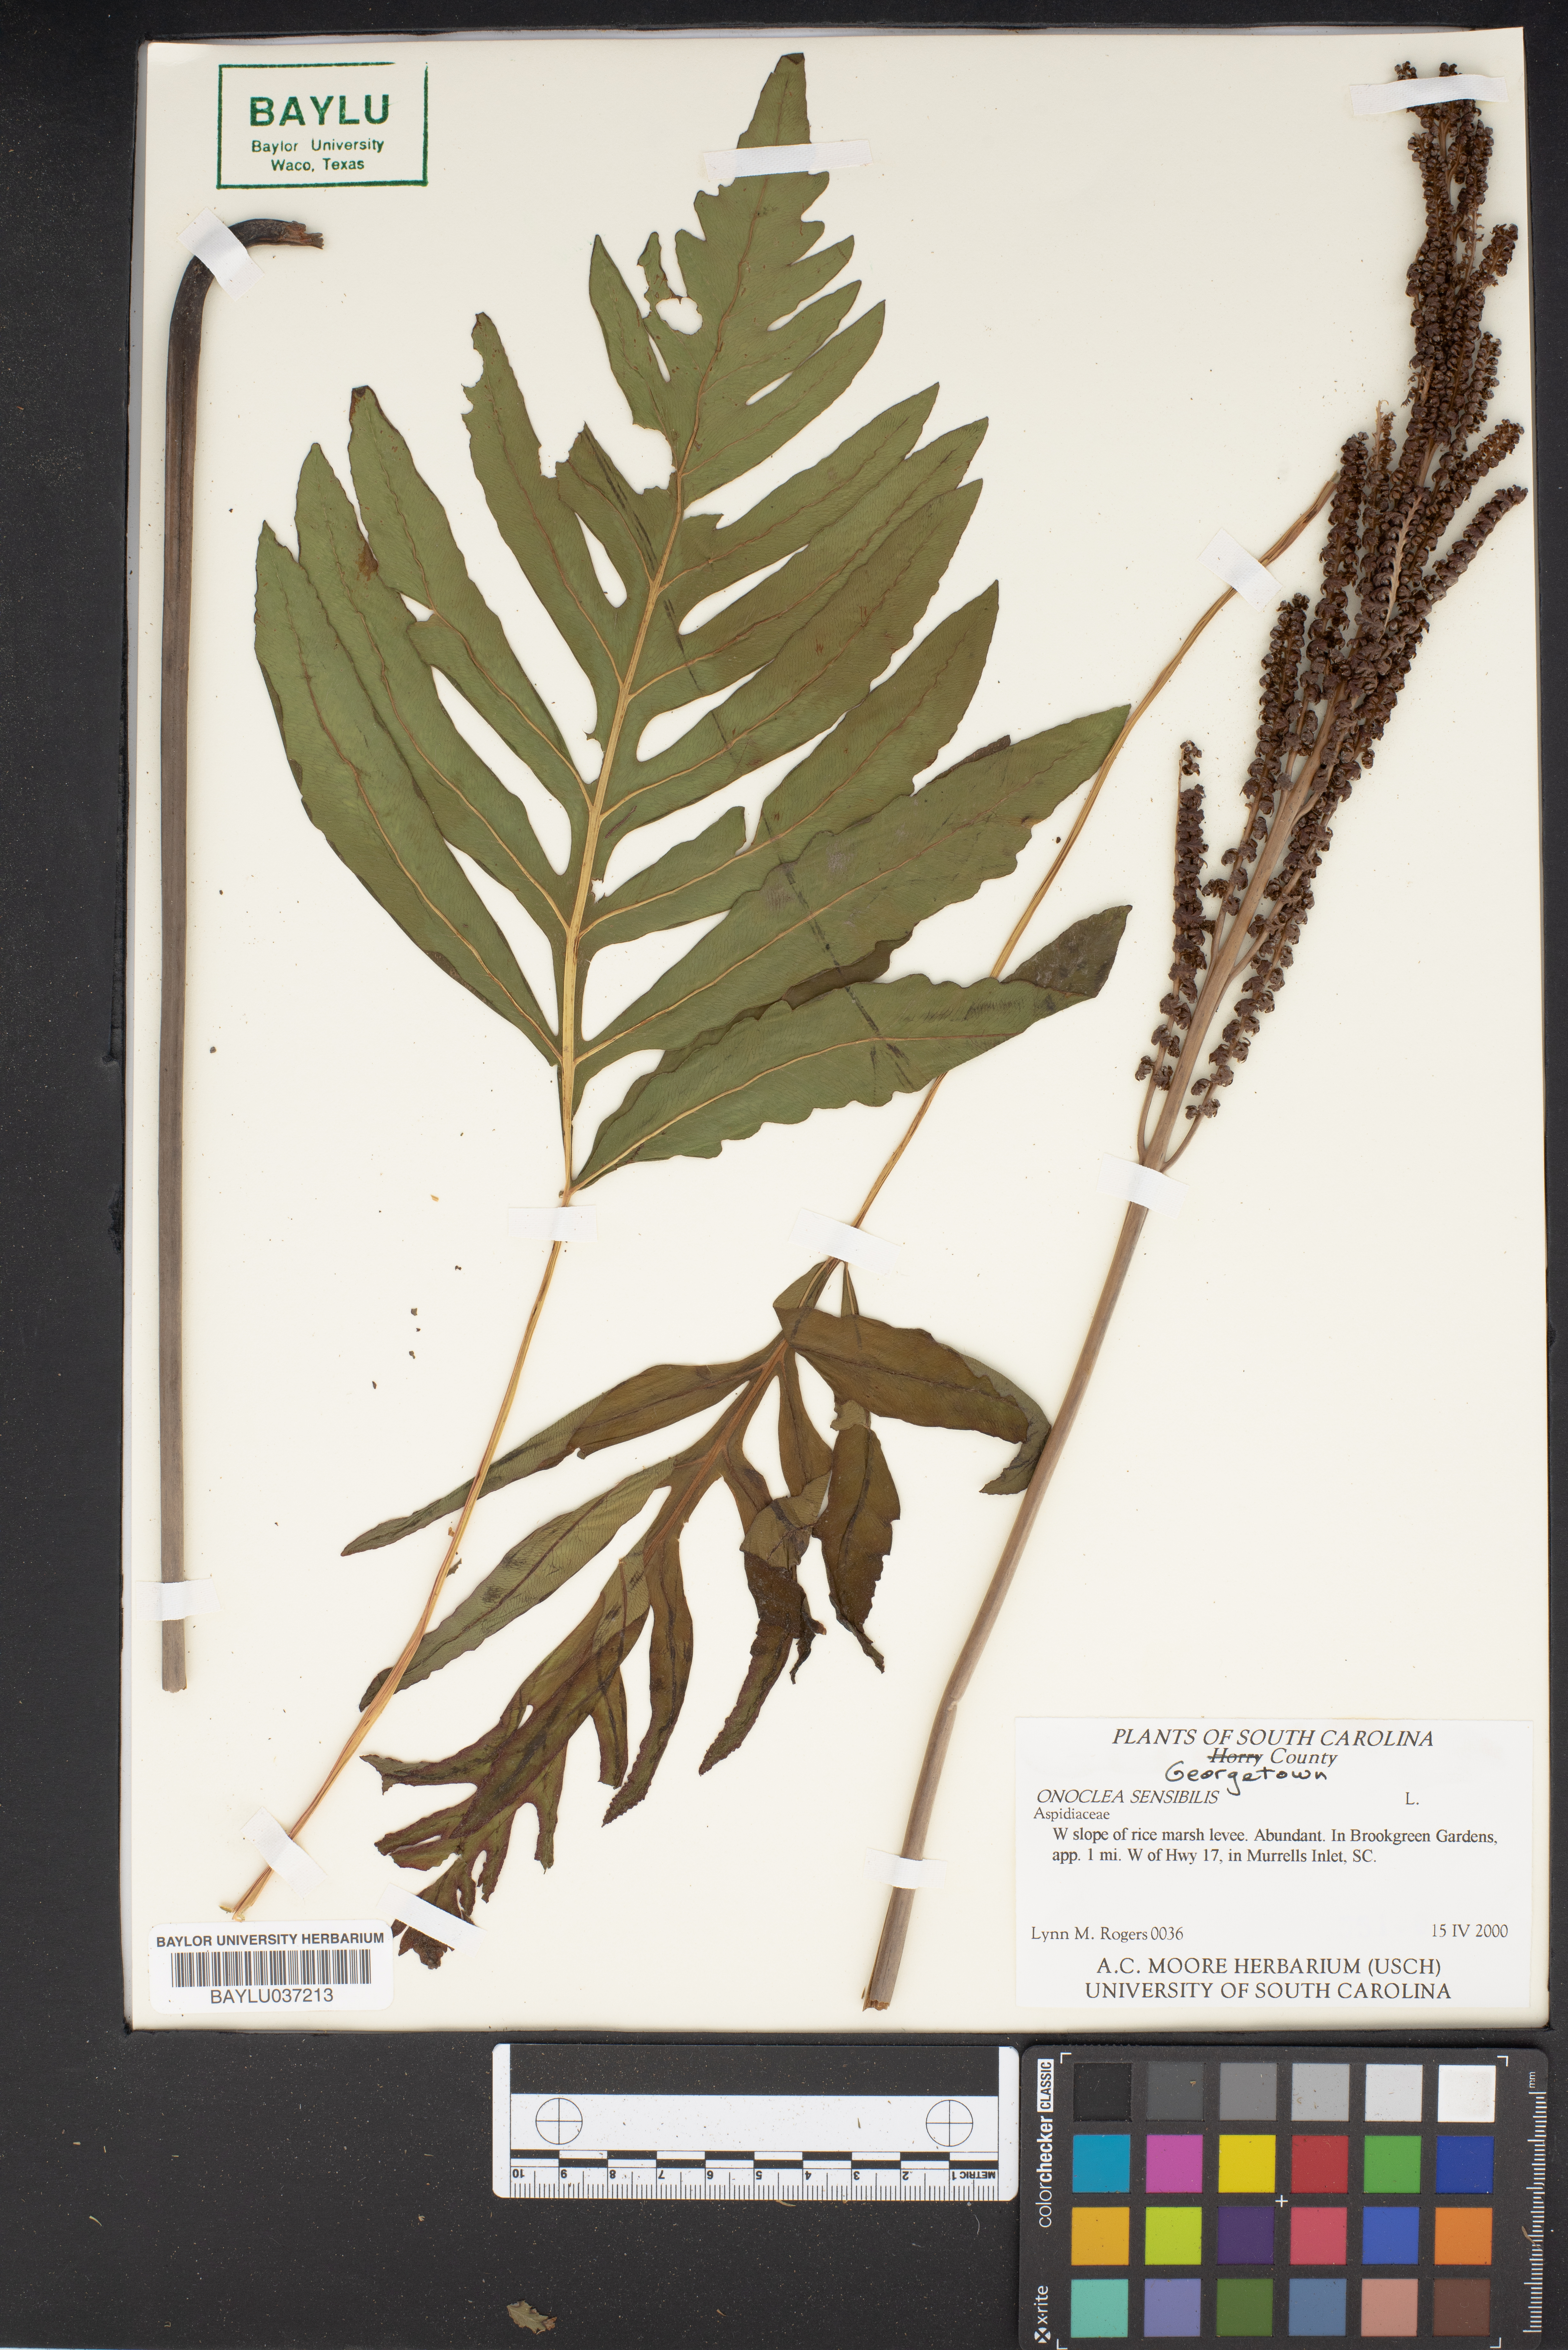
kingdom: Plantae
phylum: Tracheophyta
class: Polypodiopsida
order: Polypodiales
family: Onocleaceae
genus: Onoclea
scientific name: Onoclea sensibilis
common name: Sensitive fern
